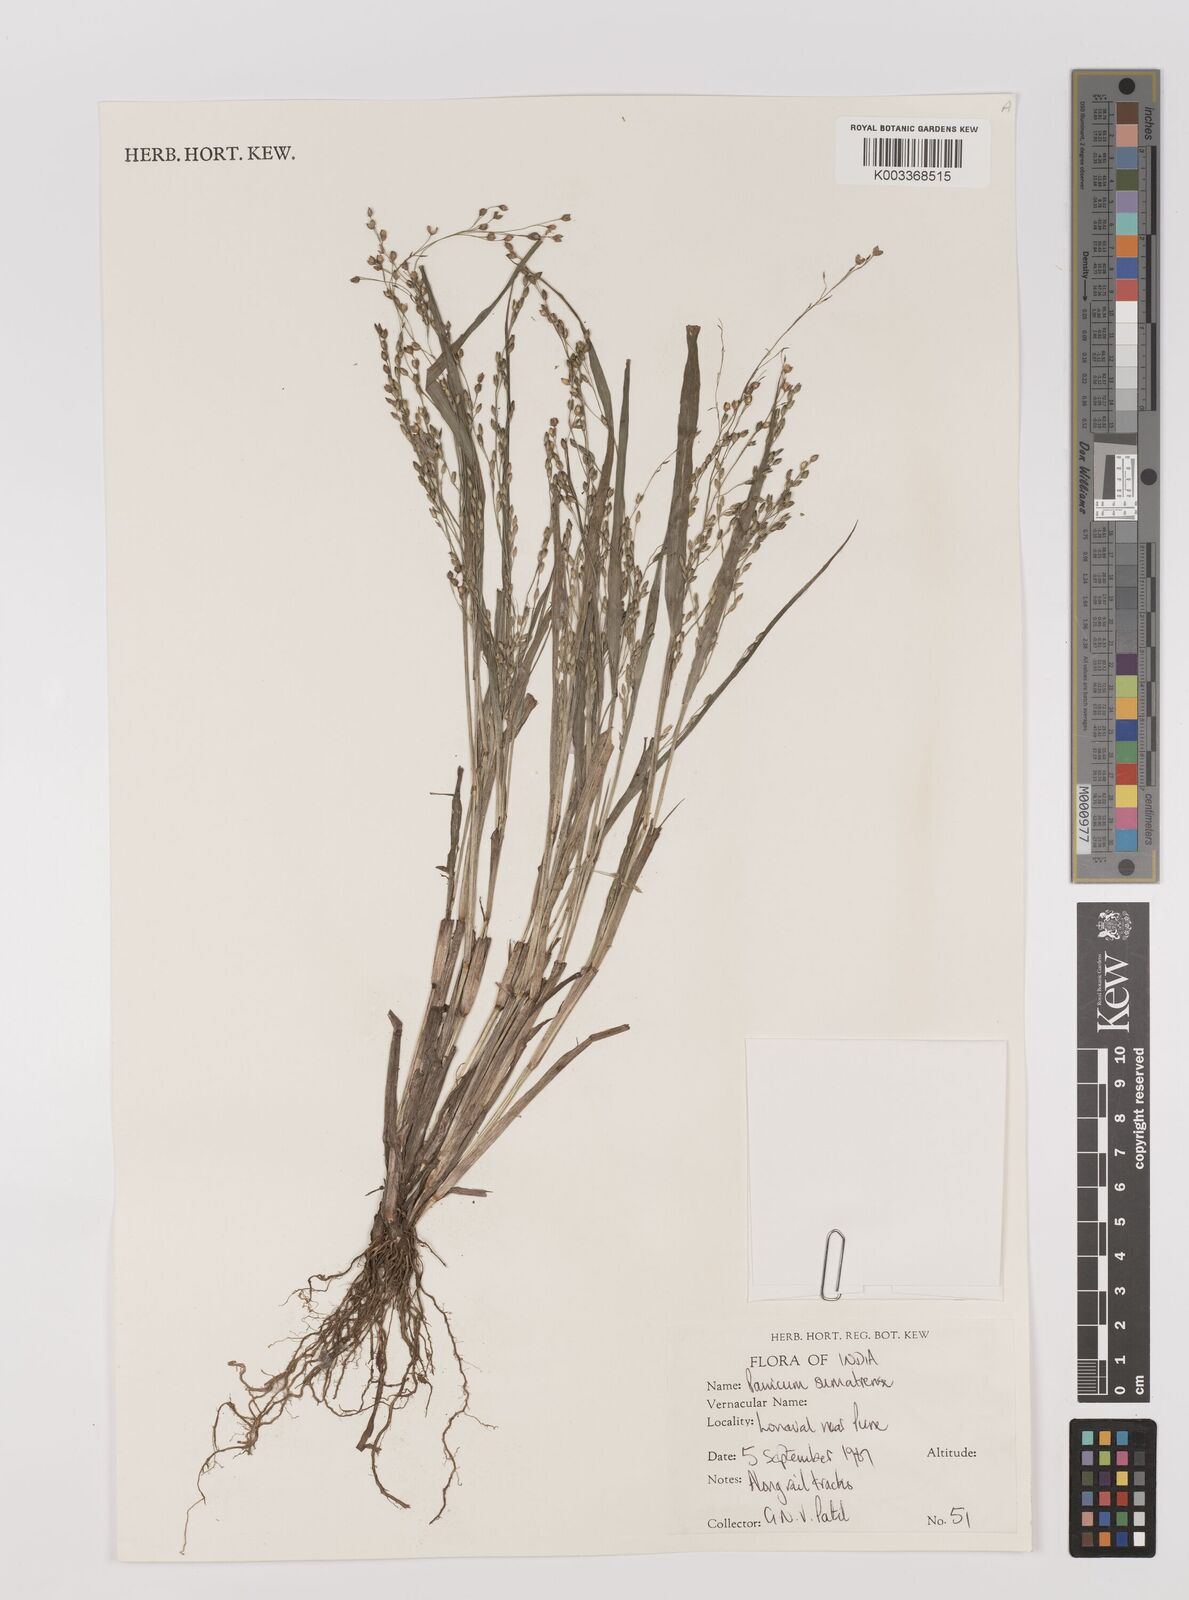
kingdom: Plantae
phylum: Tracheophyta
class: Liliopsida
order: Poales
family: Poaceae
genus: Panicum
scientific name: Panicum sumatrense
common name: Little millet
